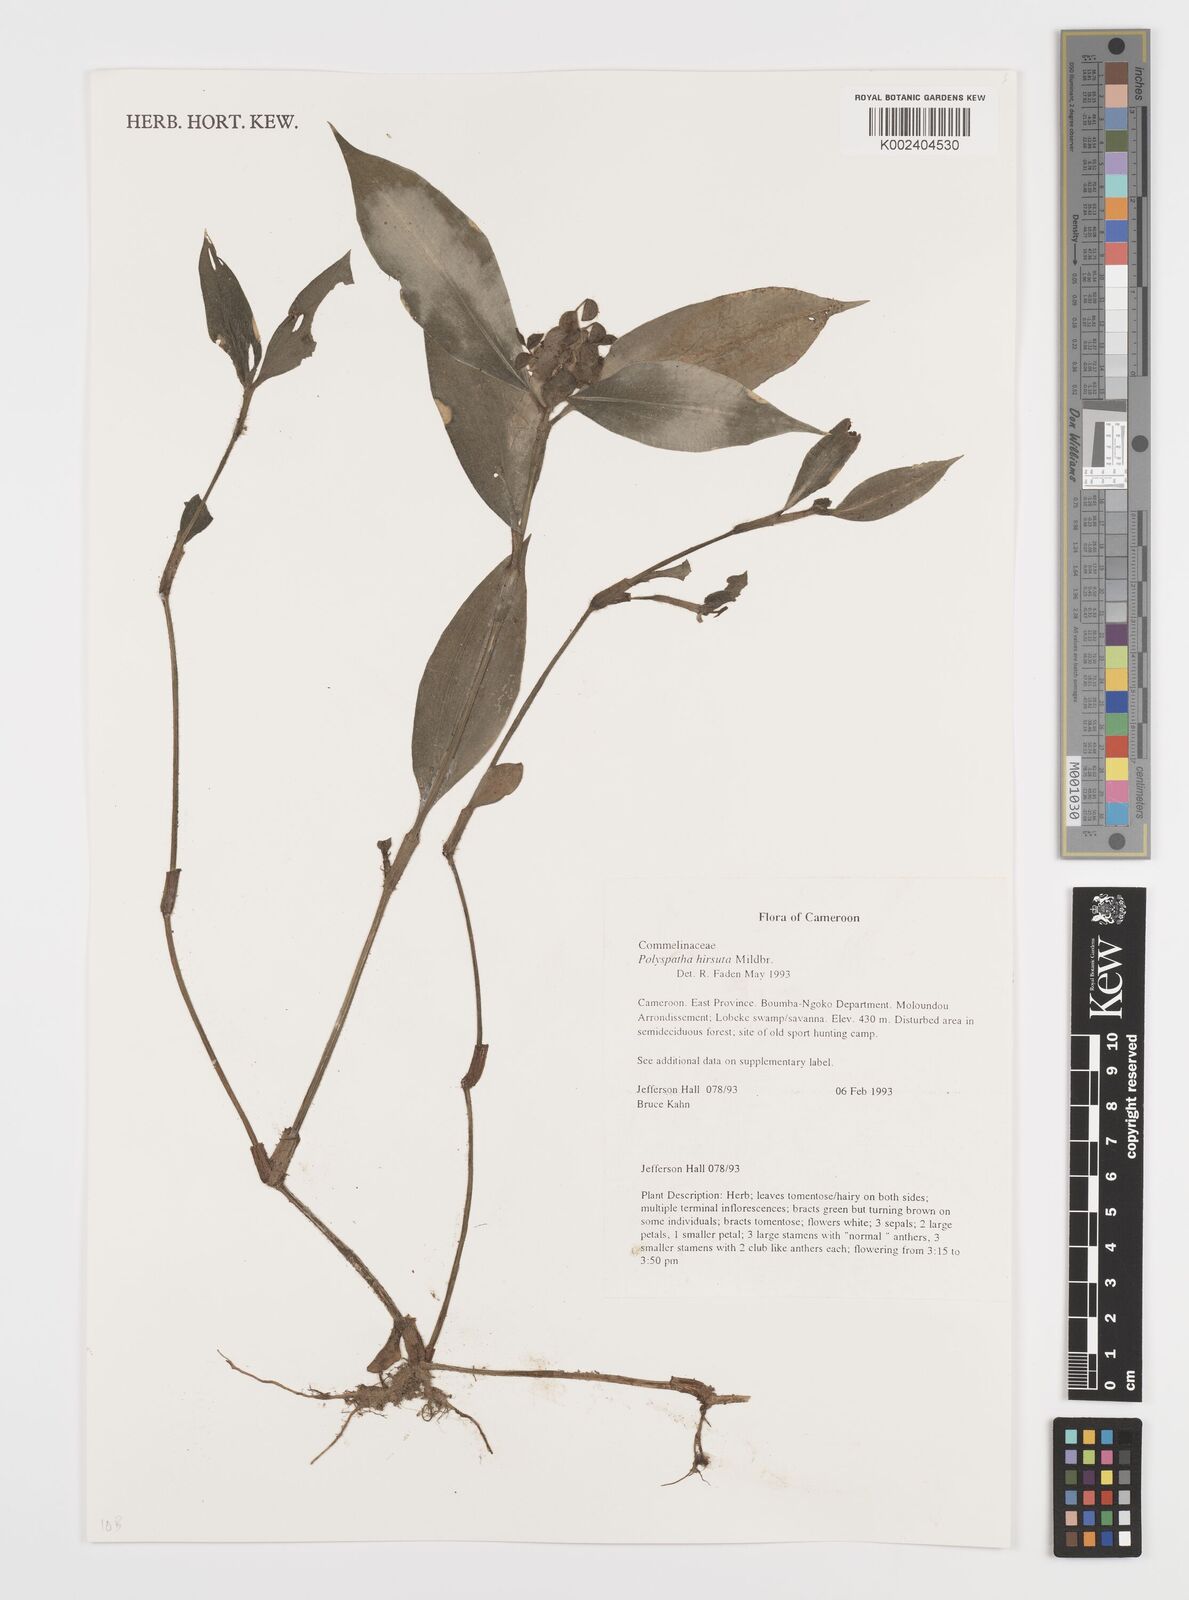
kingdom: Plantae
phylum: Tracheophyta
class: Liliopsida
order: Commelinales
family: Commelinaceae
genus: Polyspatha
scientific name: Polyspatha hirsuta
